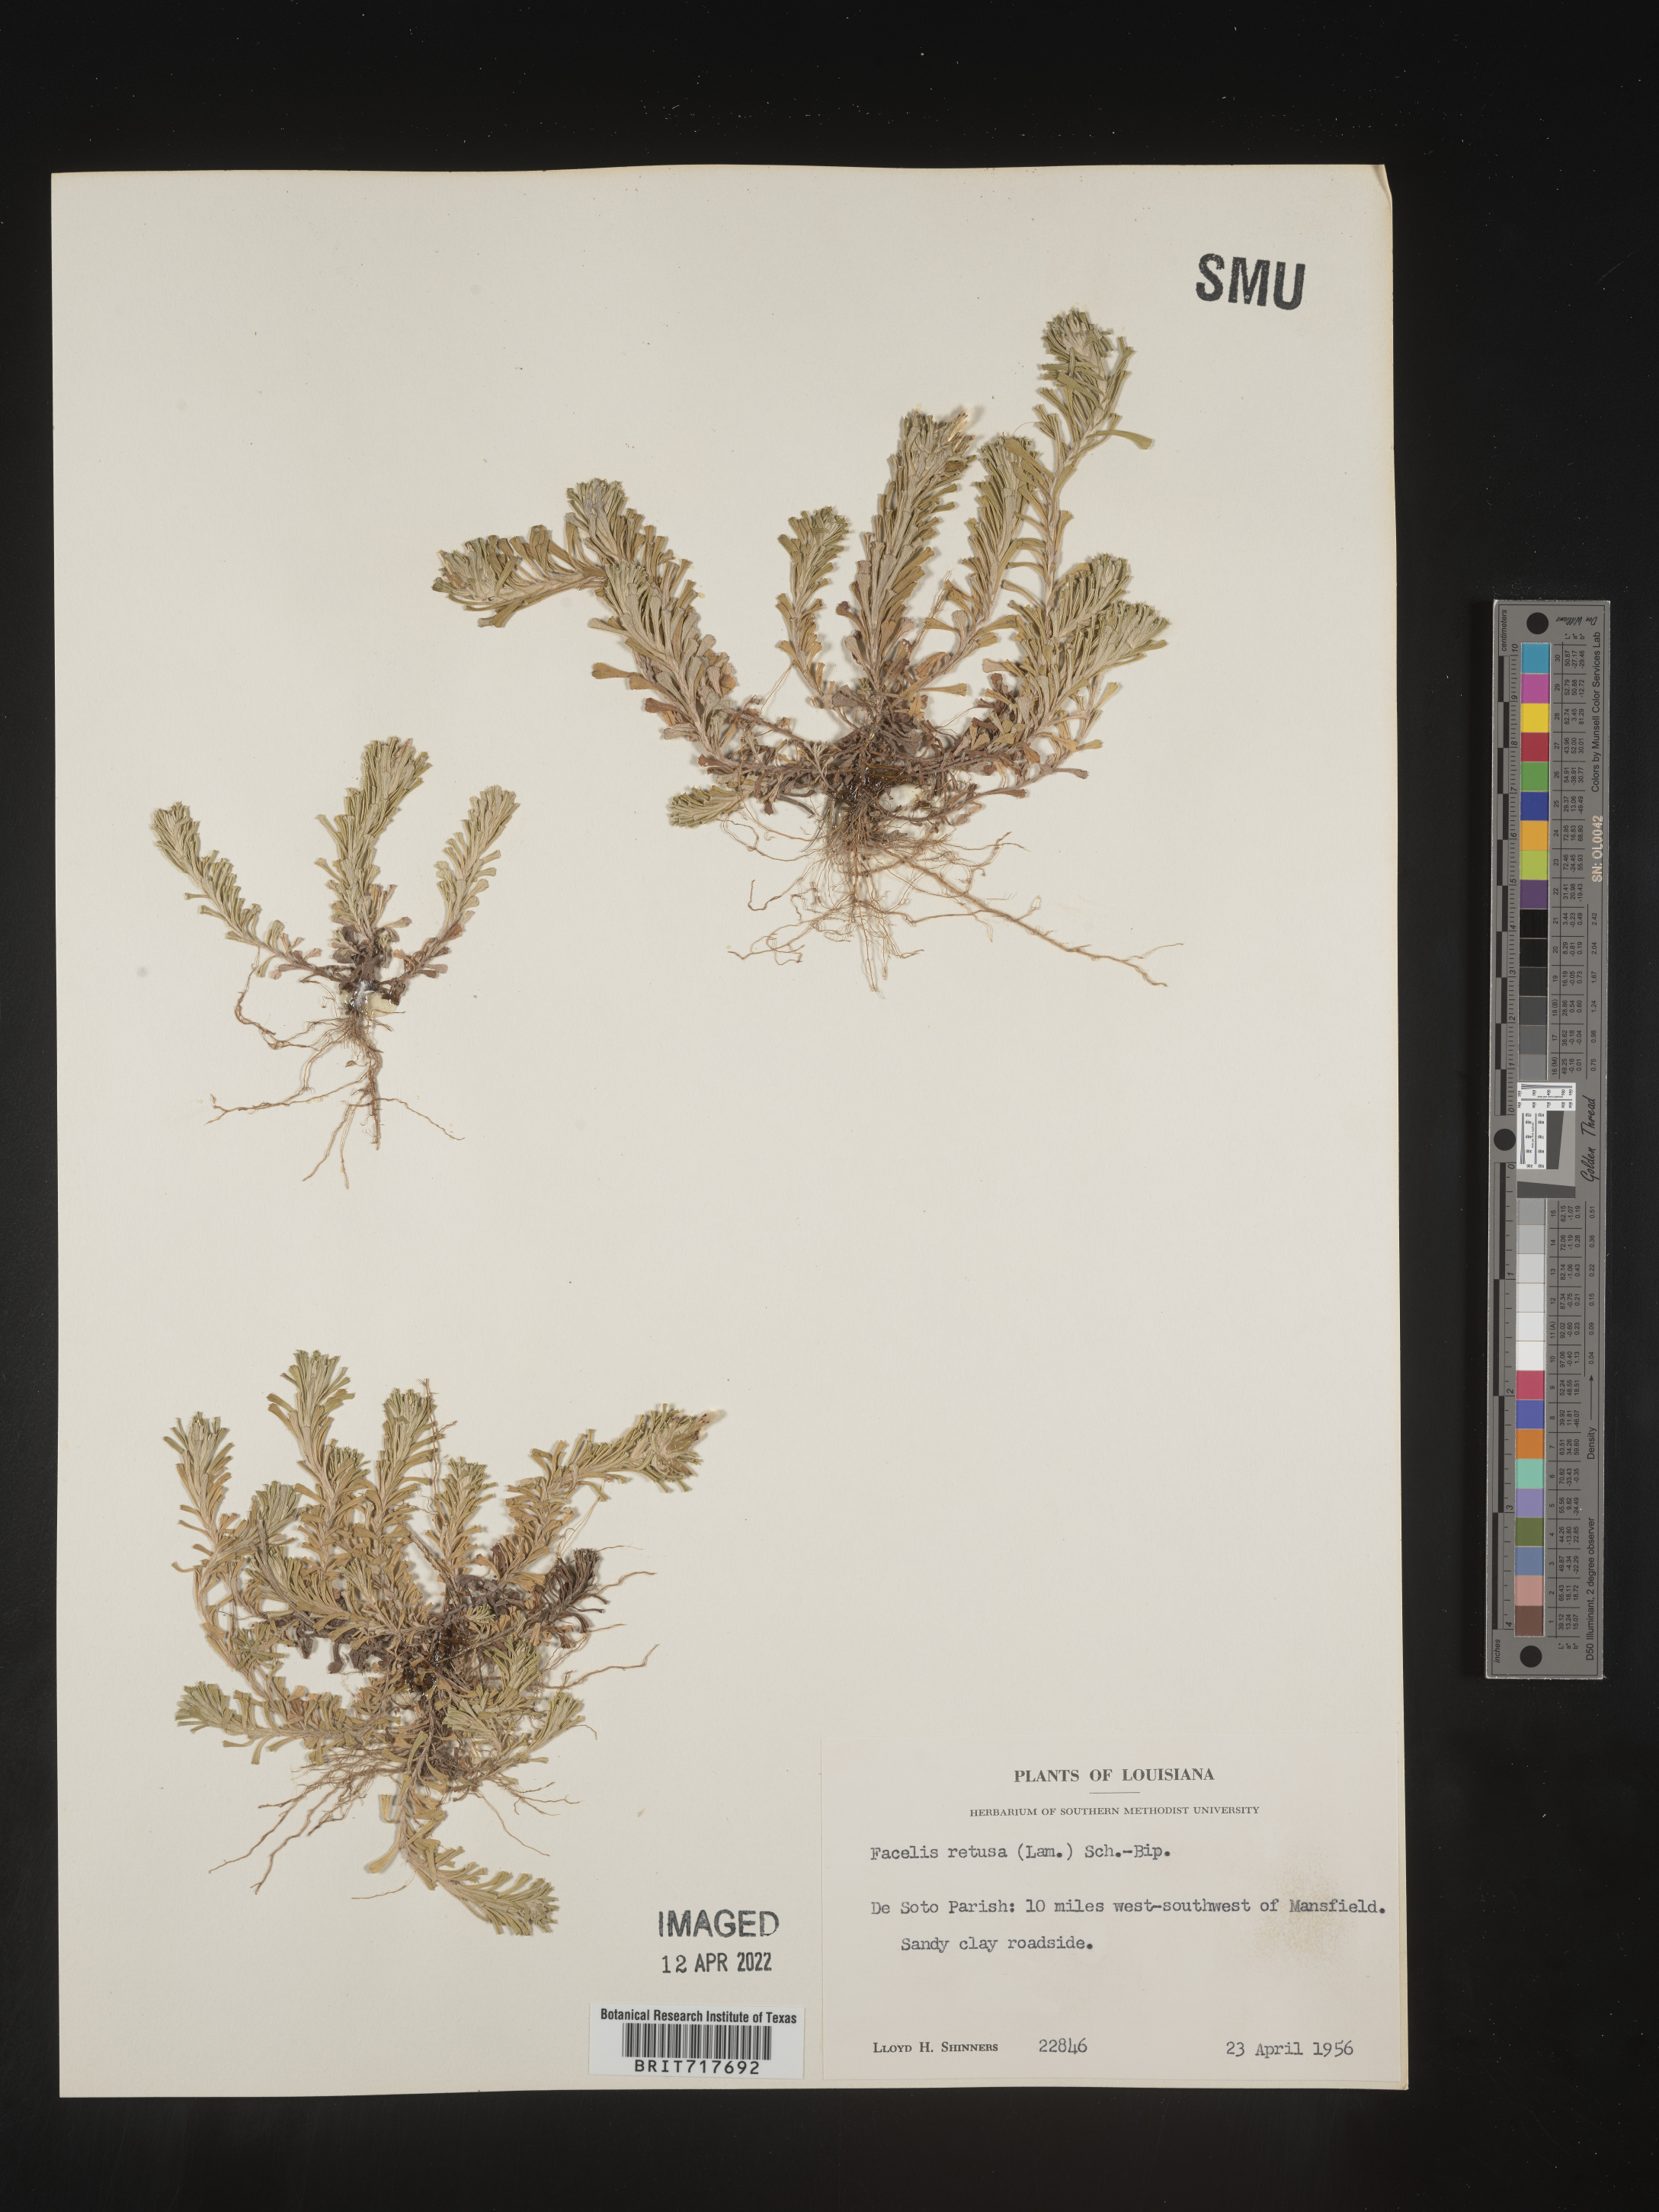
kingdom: Plantae
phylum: Tracheophyta
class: Magnoliopsida
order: Asterales
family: Asteraceae
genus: Facelis
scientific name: Facelis retusa
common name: Annual trampweed
